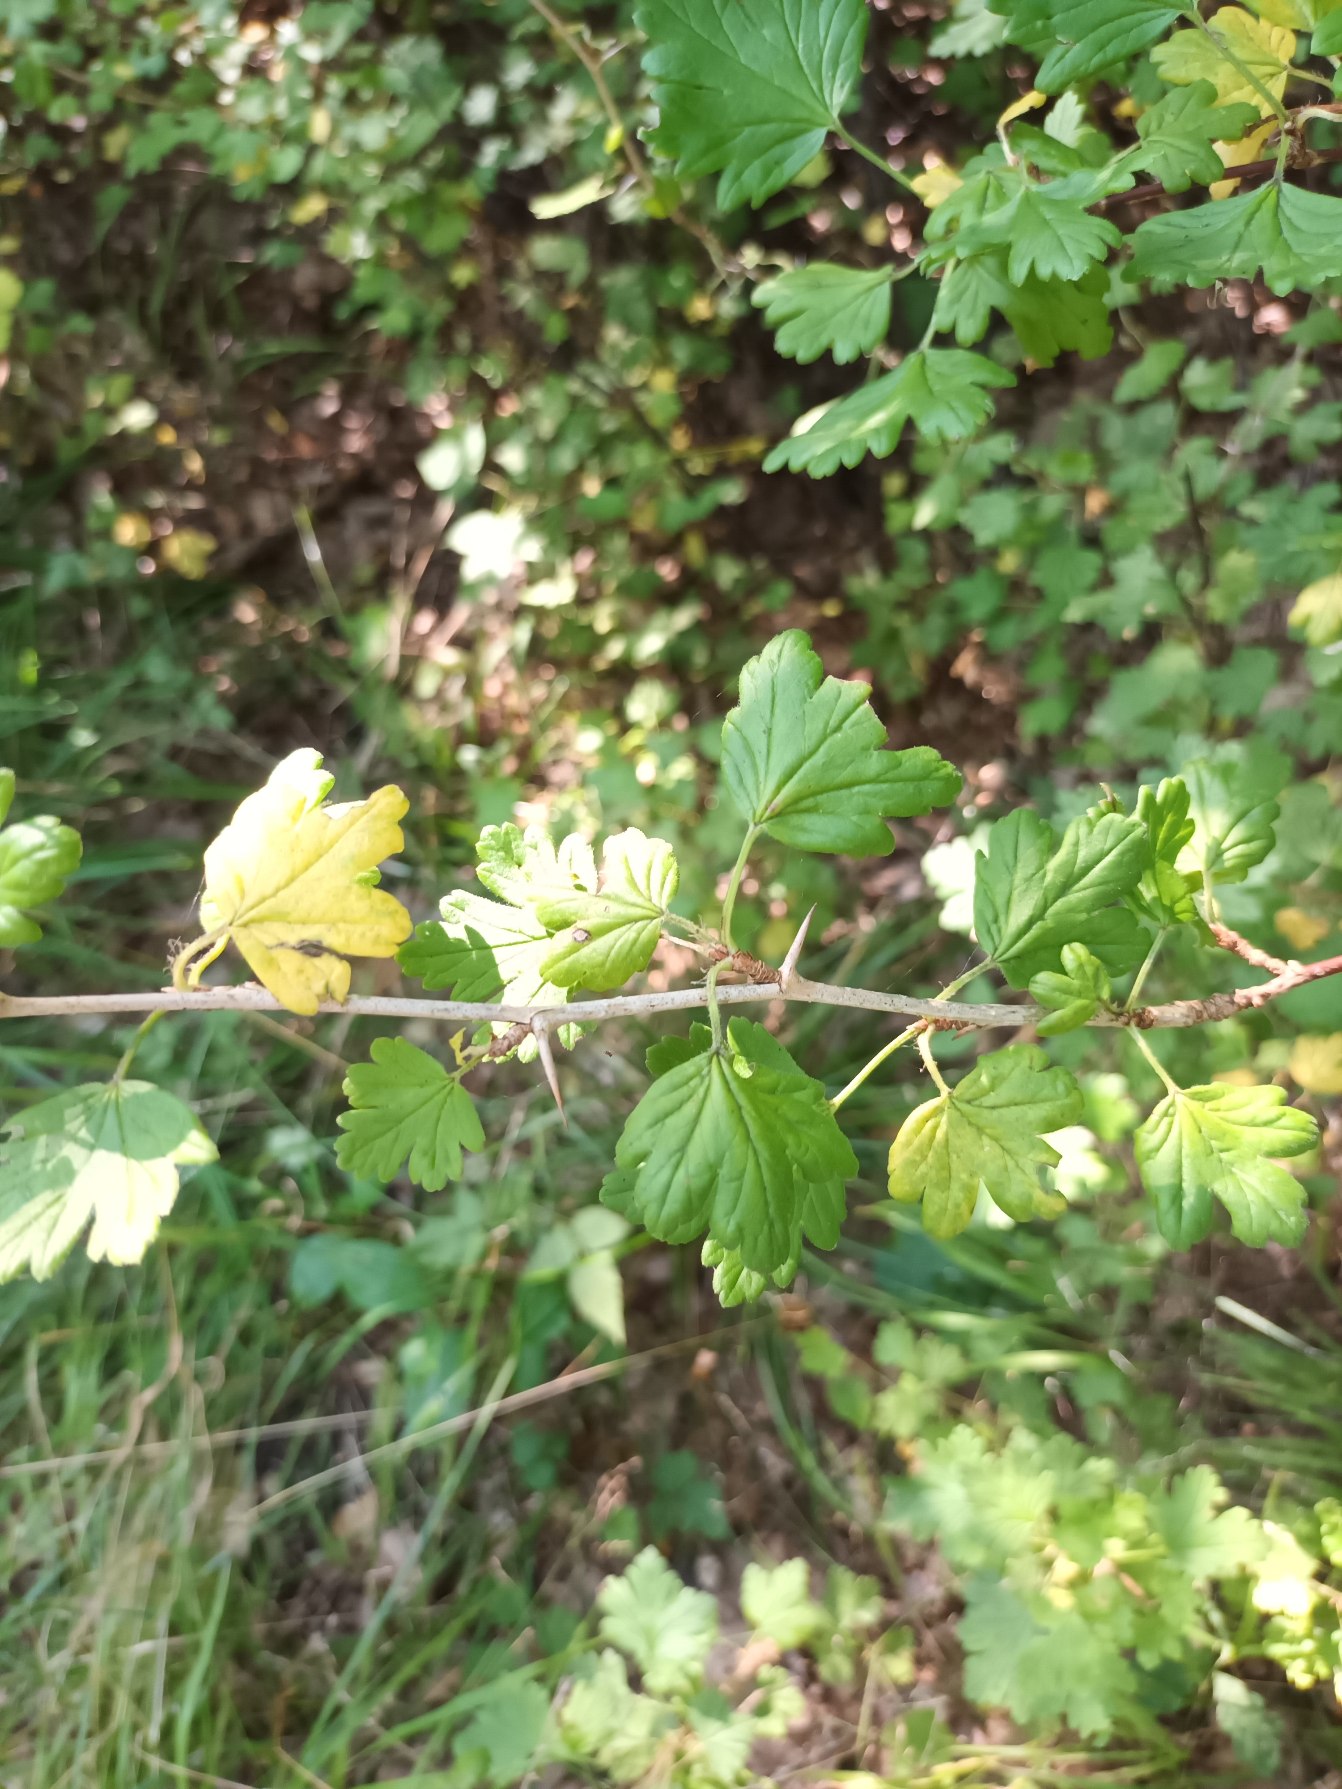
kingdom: Plantae
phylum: Tracheophyta
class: Magnoliopsida
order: Saxifragales
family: Grossulariaceae
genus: Ribes
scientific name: Ribes uva-crispa
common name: Stikkelsbær
